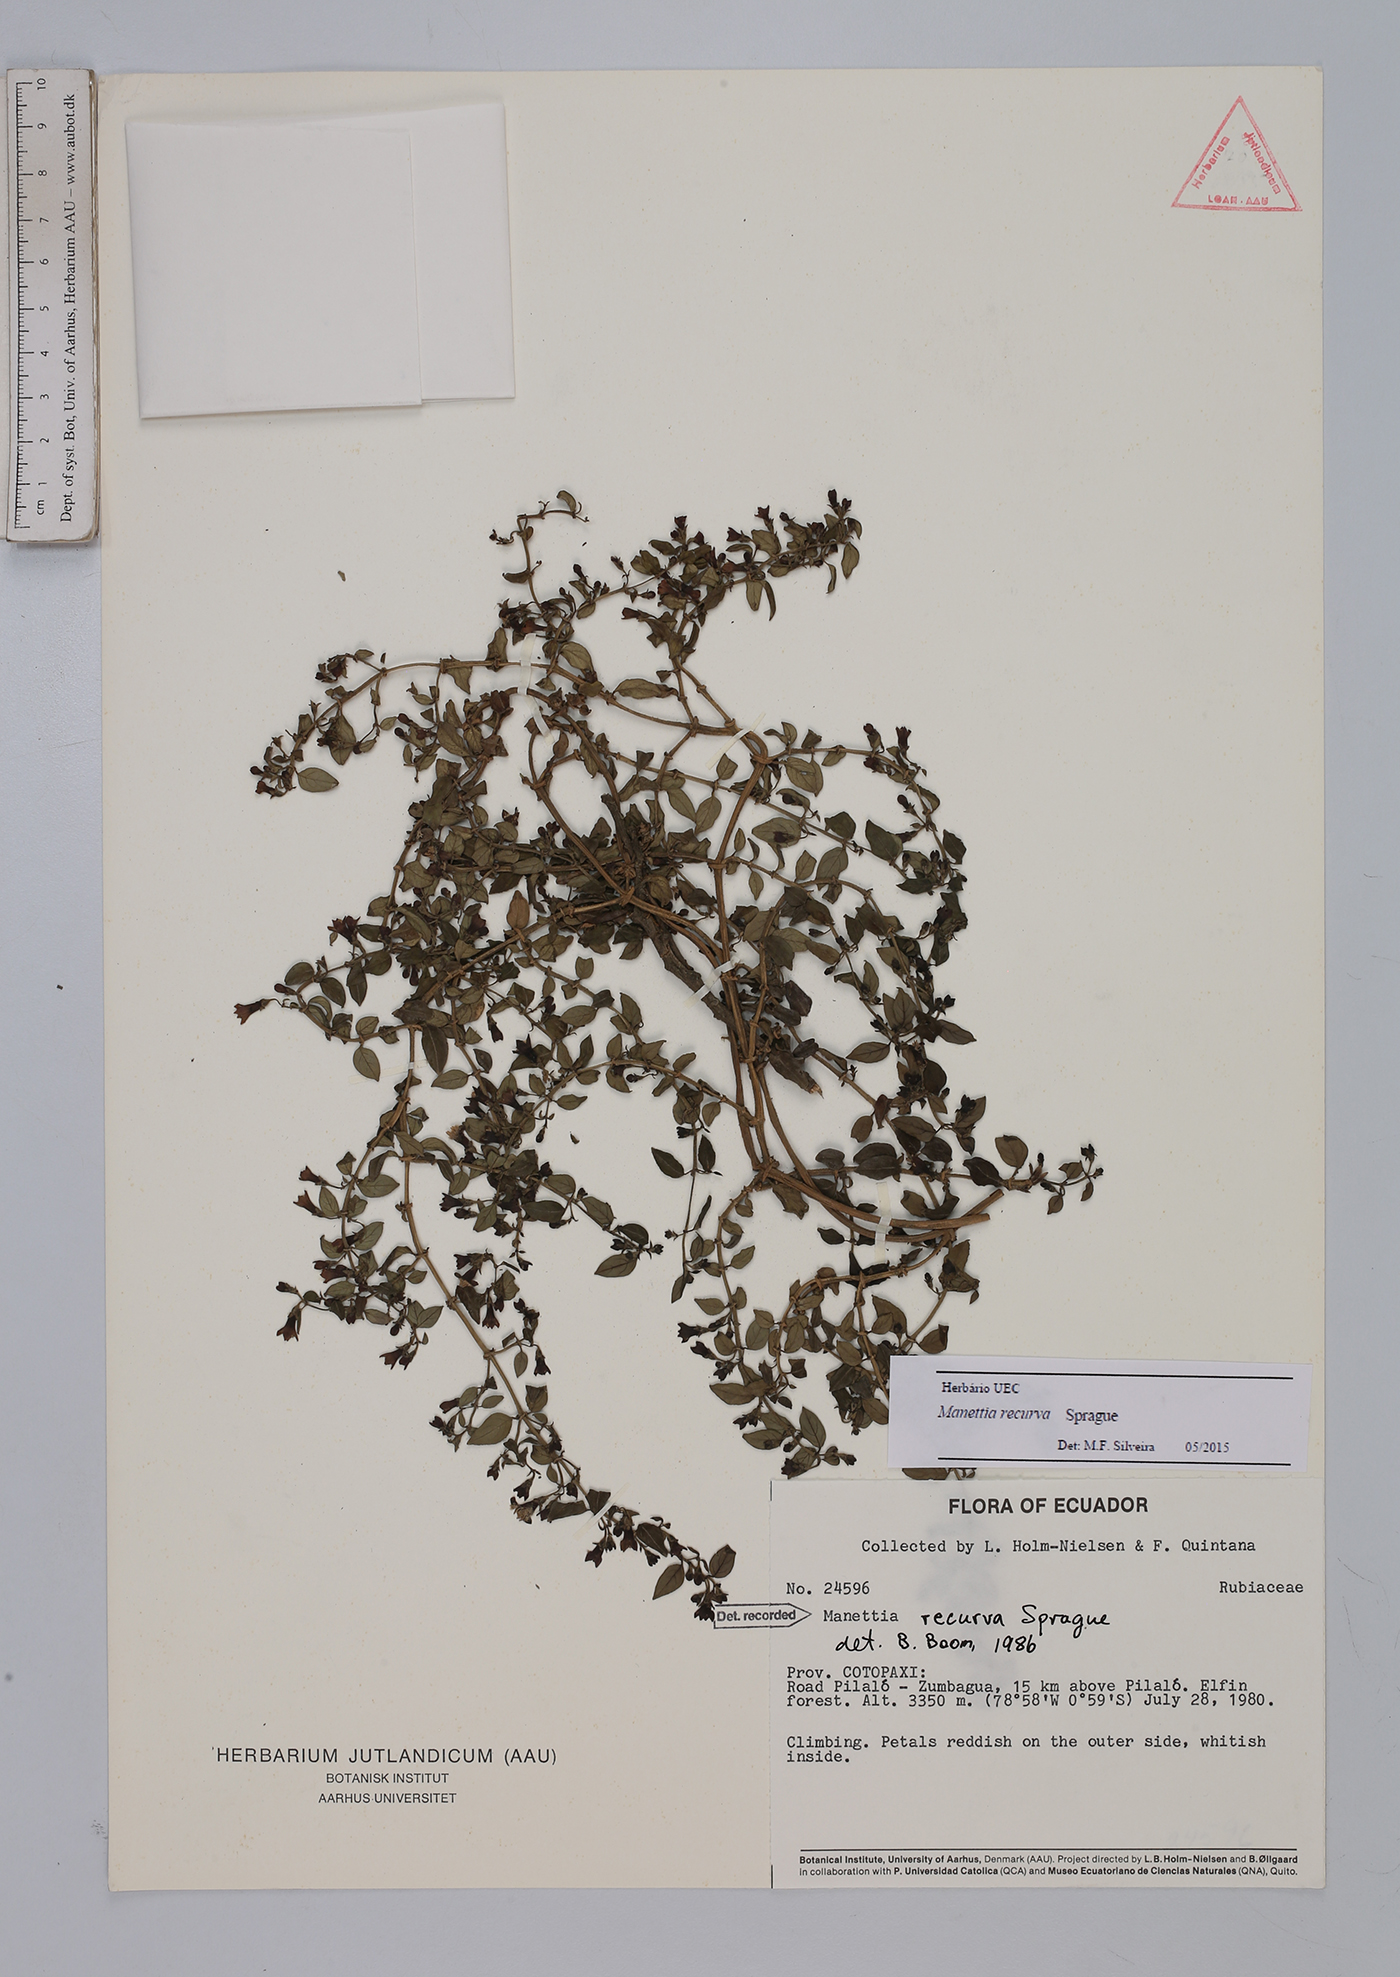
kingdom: Plantae
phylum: Tracheophyta
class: Magnoliopsida
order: Gentianales
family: Rubiaceae
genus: Manettia
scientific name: Manettia recurva
